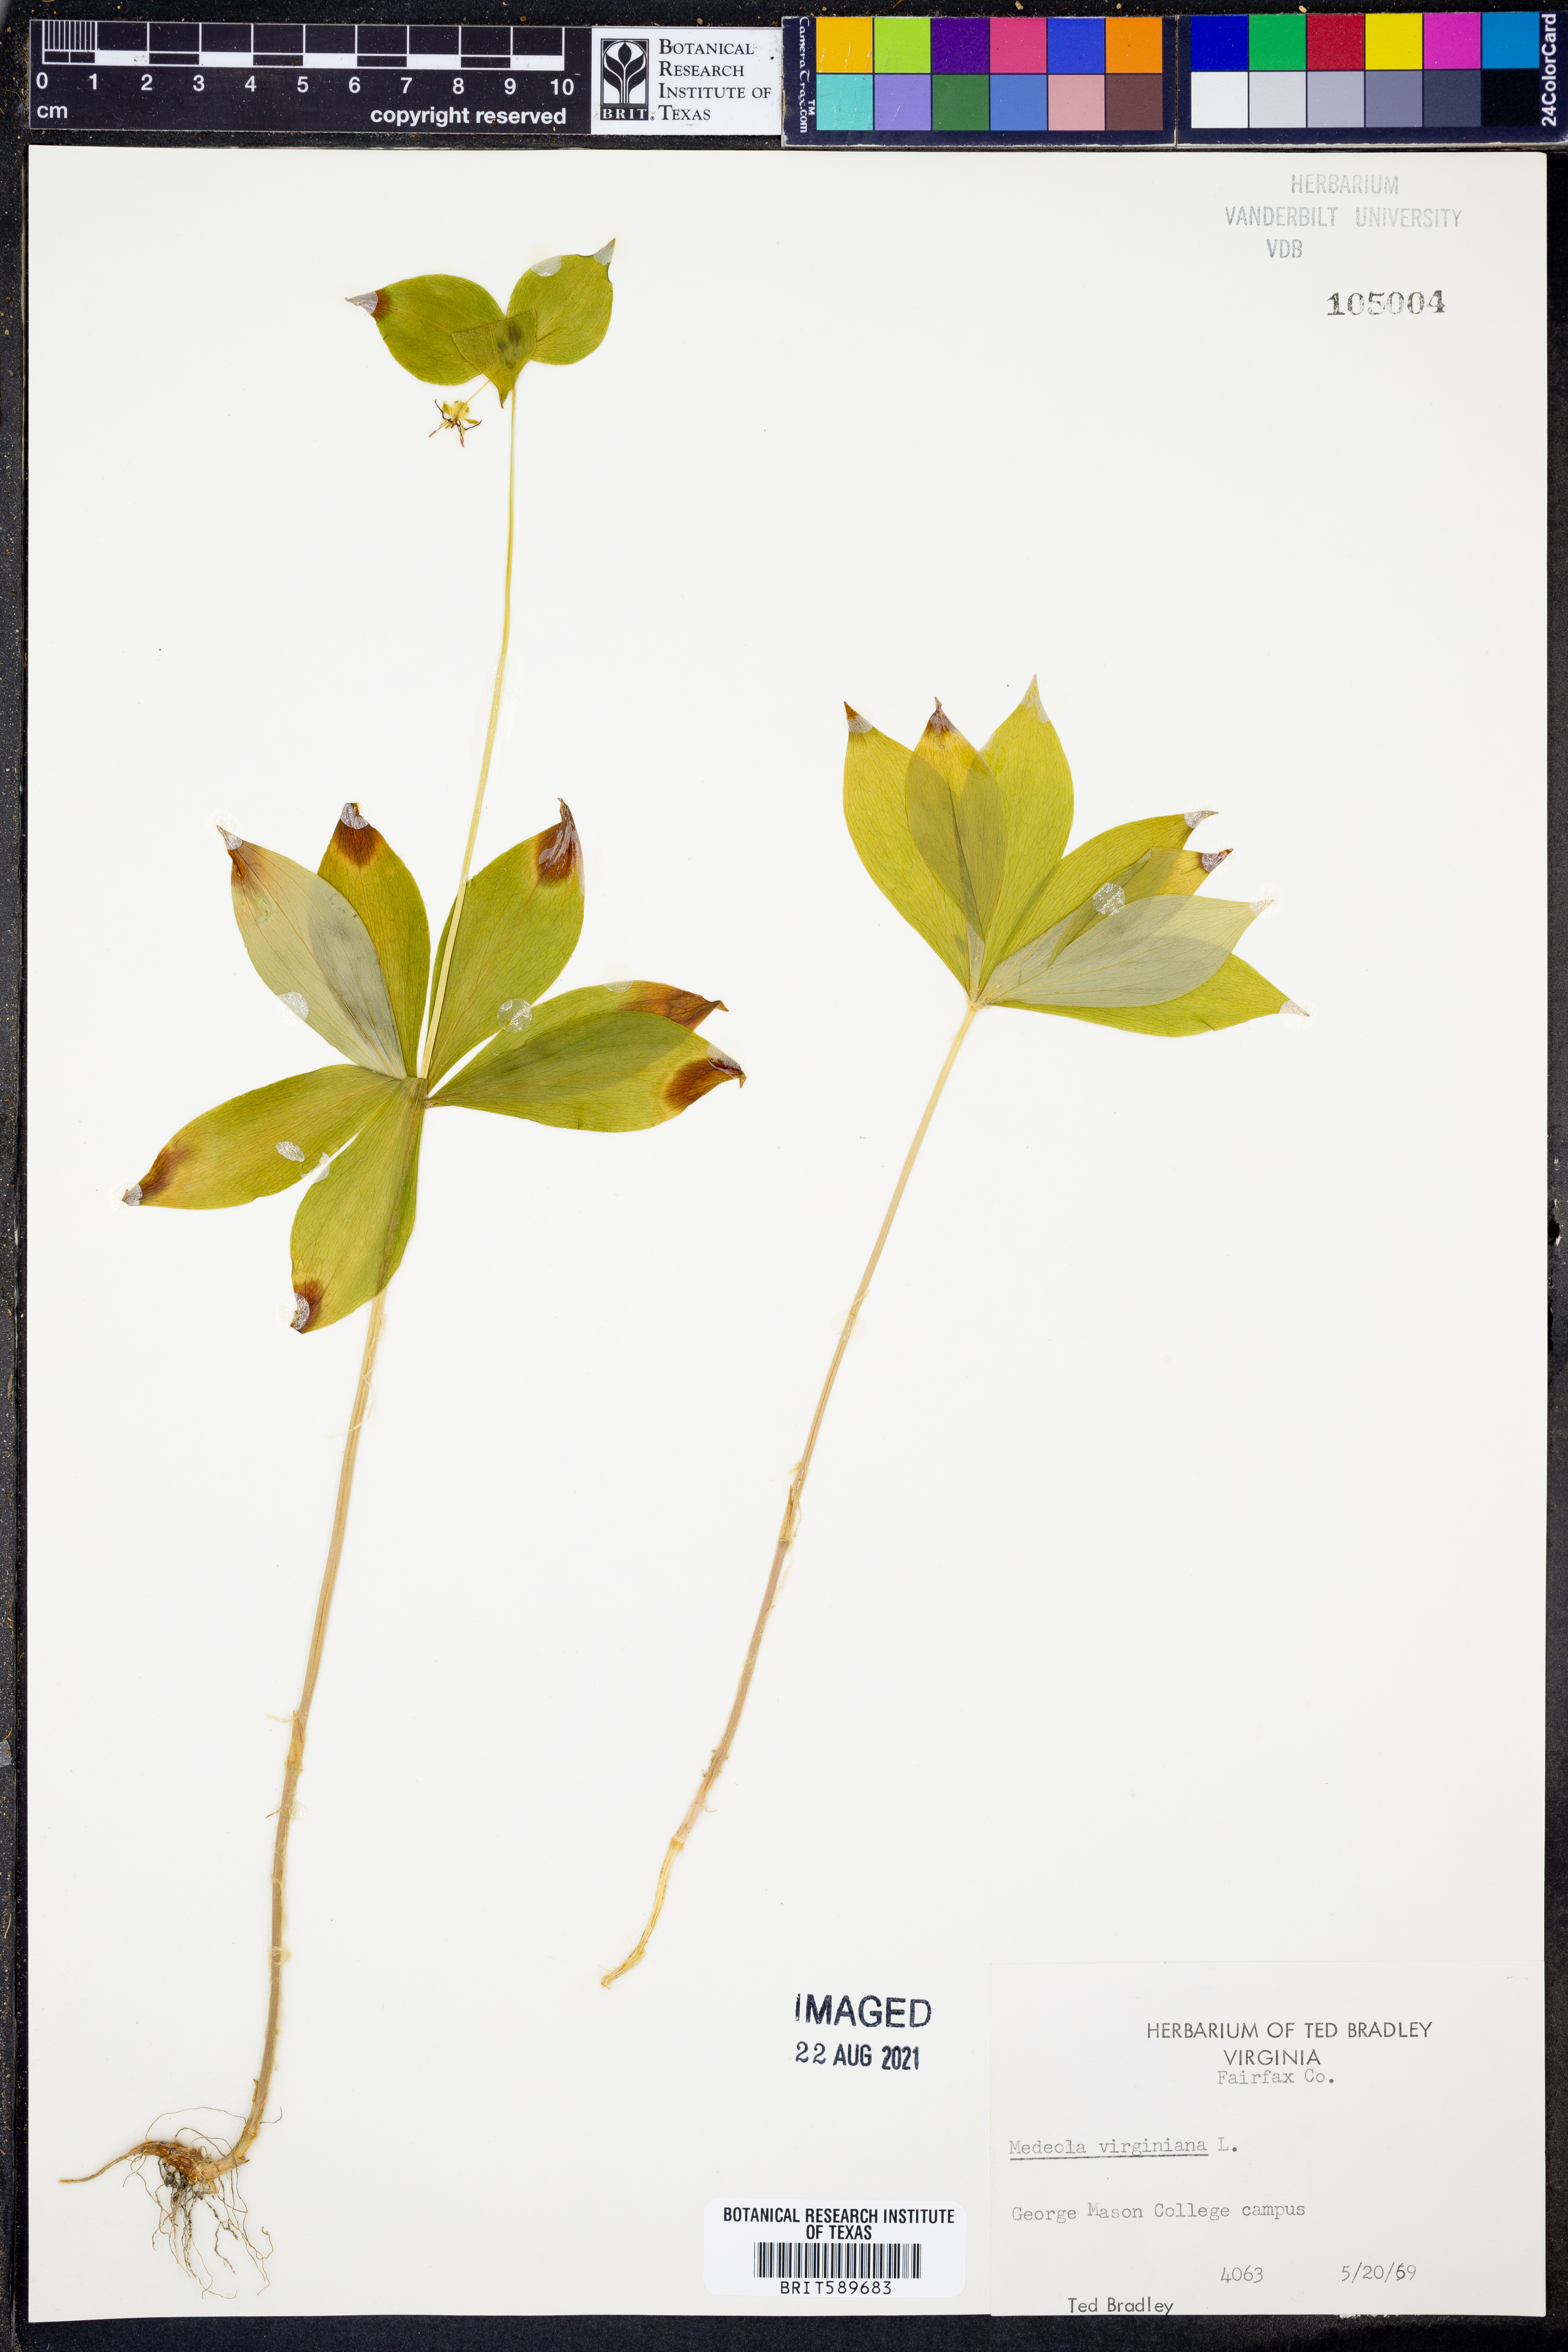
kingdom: Plantae
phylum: Tracheophyta
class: Liliopsida
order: Liliales
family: Liliaceae
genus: Medeola
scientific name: Medeola virginiana
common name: Indian cucumber-root
